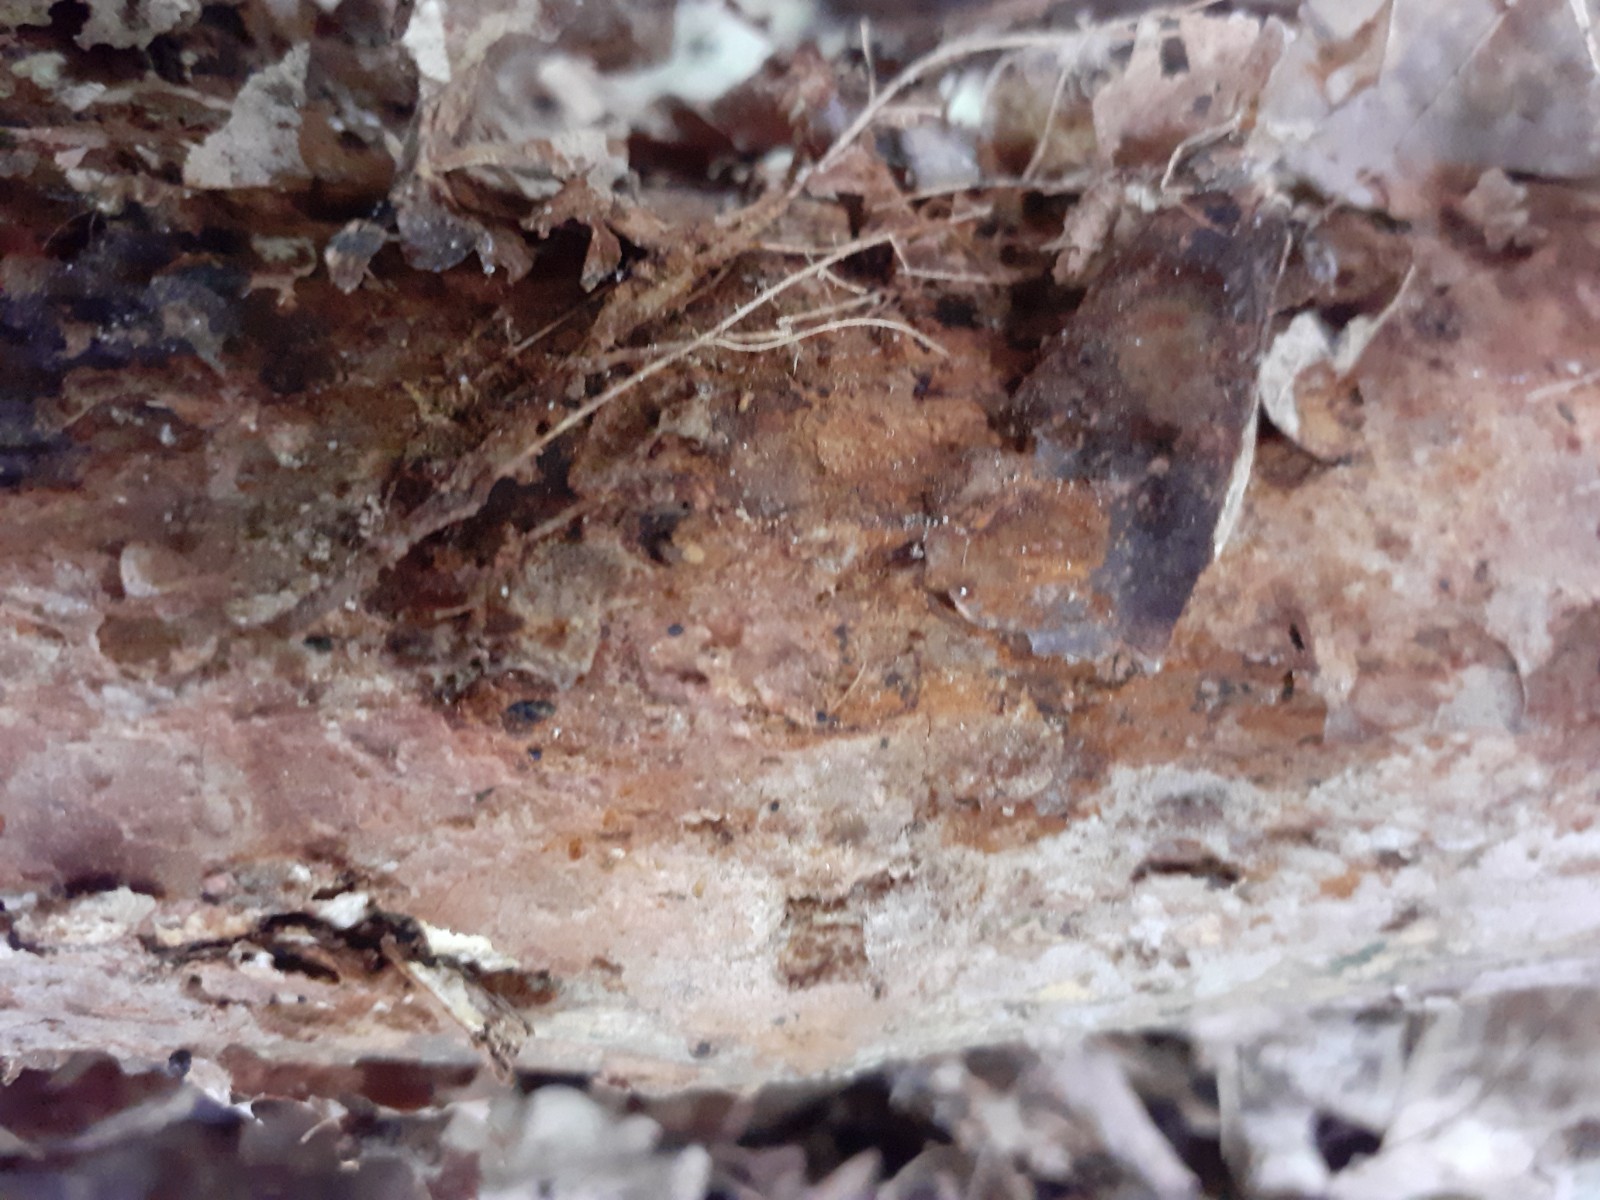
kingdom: Fungi
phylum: Basidiomycota
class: Agaricomycetes
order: Hymenochaetales
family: Hymenochaetaceae
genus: Hydnoporia
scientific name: Hydnoporia corrugata
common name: sprække-ruslædersvamp
